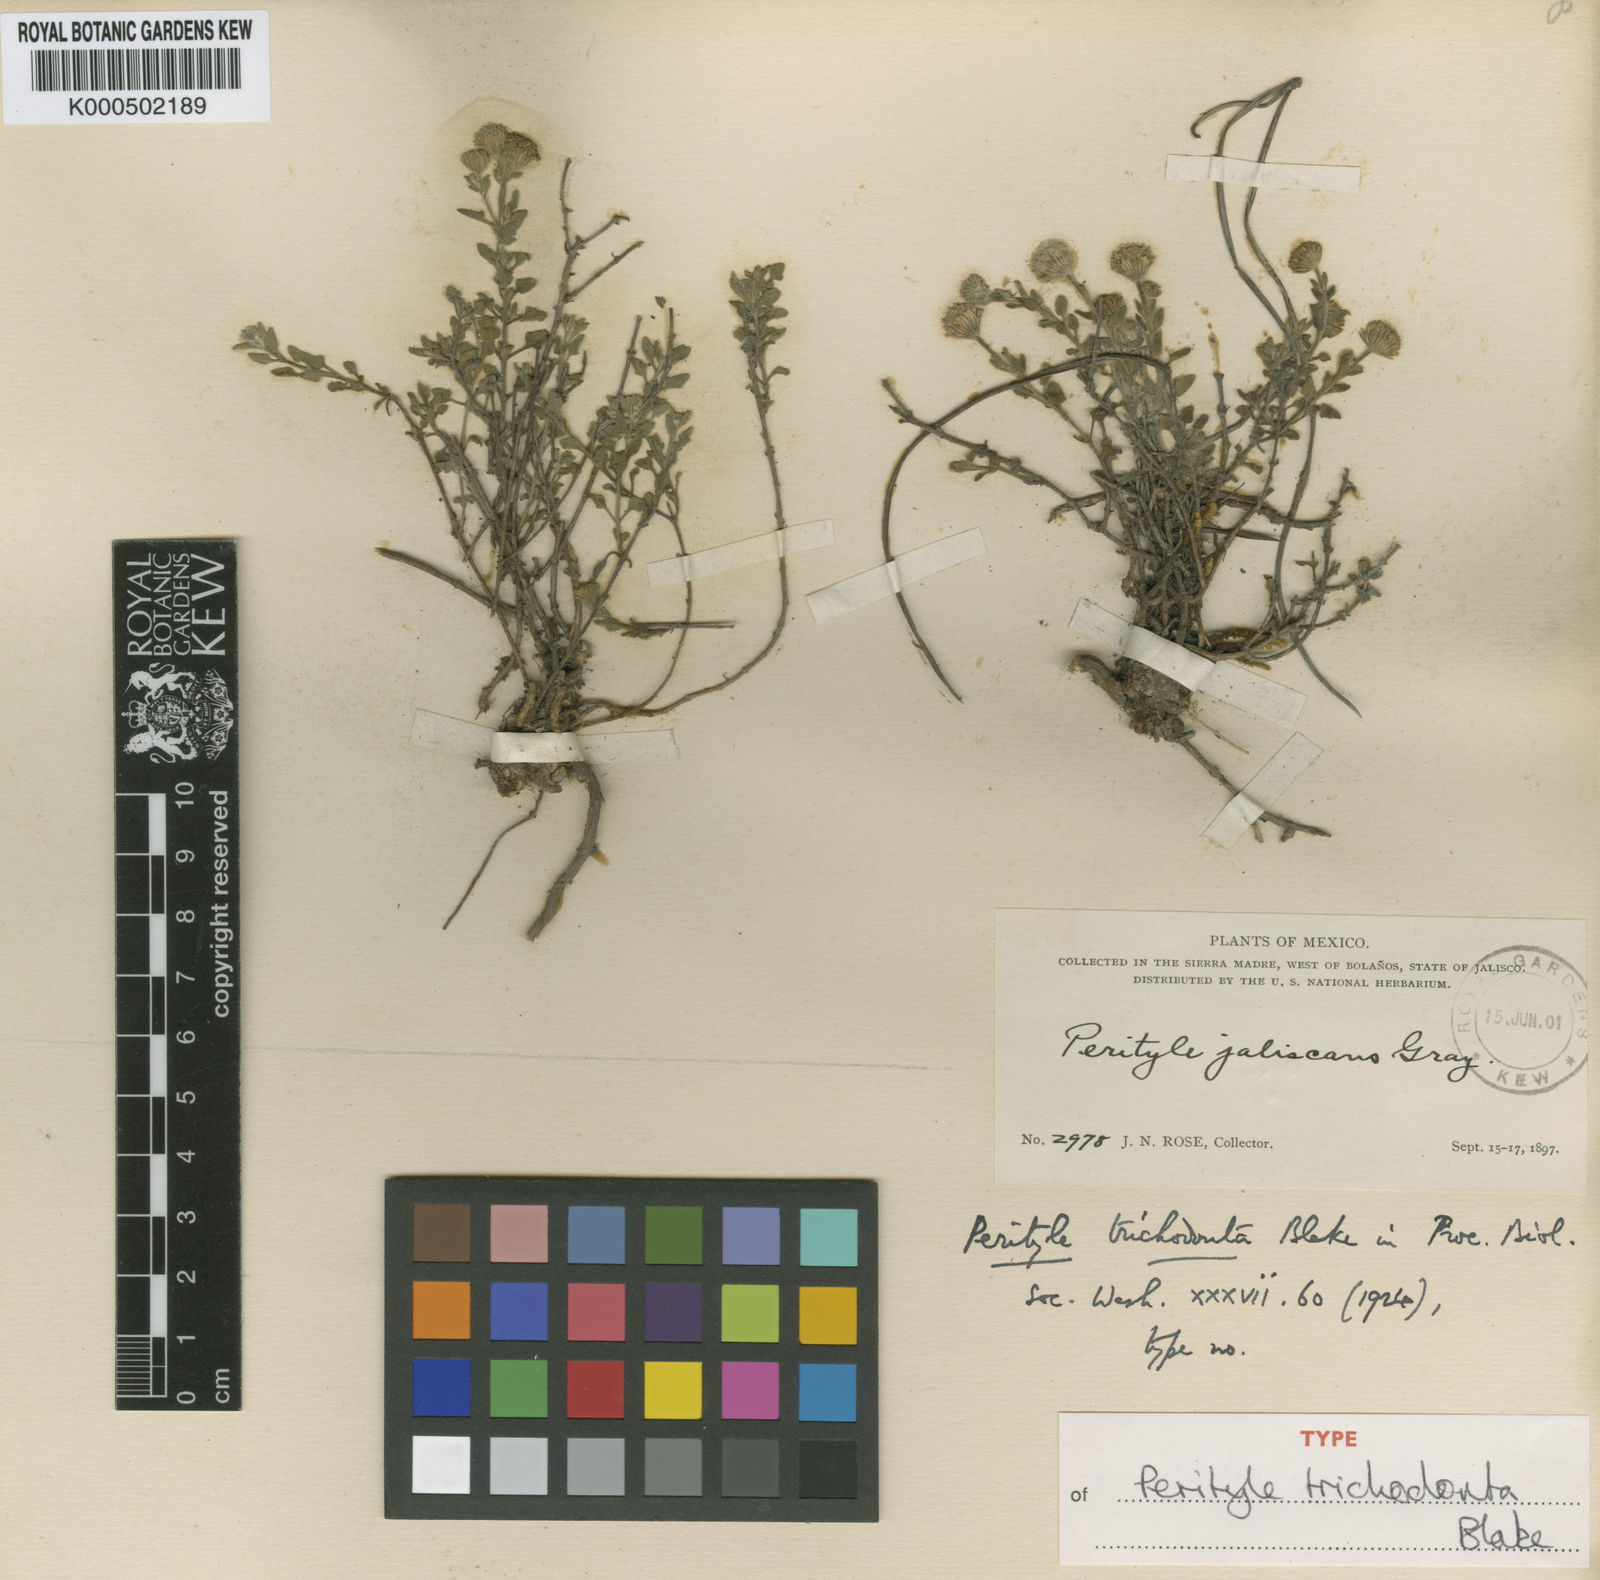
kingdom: Plantae
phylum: Tracheophyta
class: Magnoliopsida
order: Asterales
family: Asteraceae
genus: Perityle
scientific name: Perityle trichodonta
